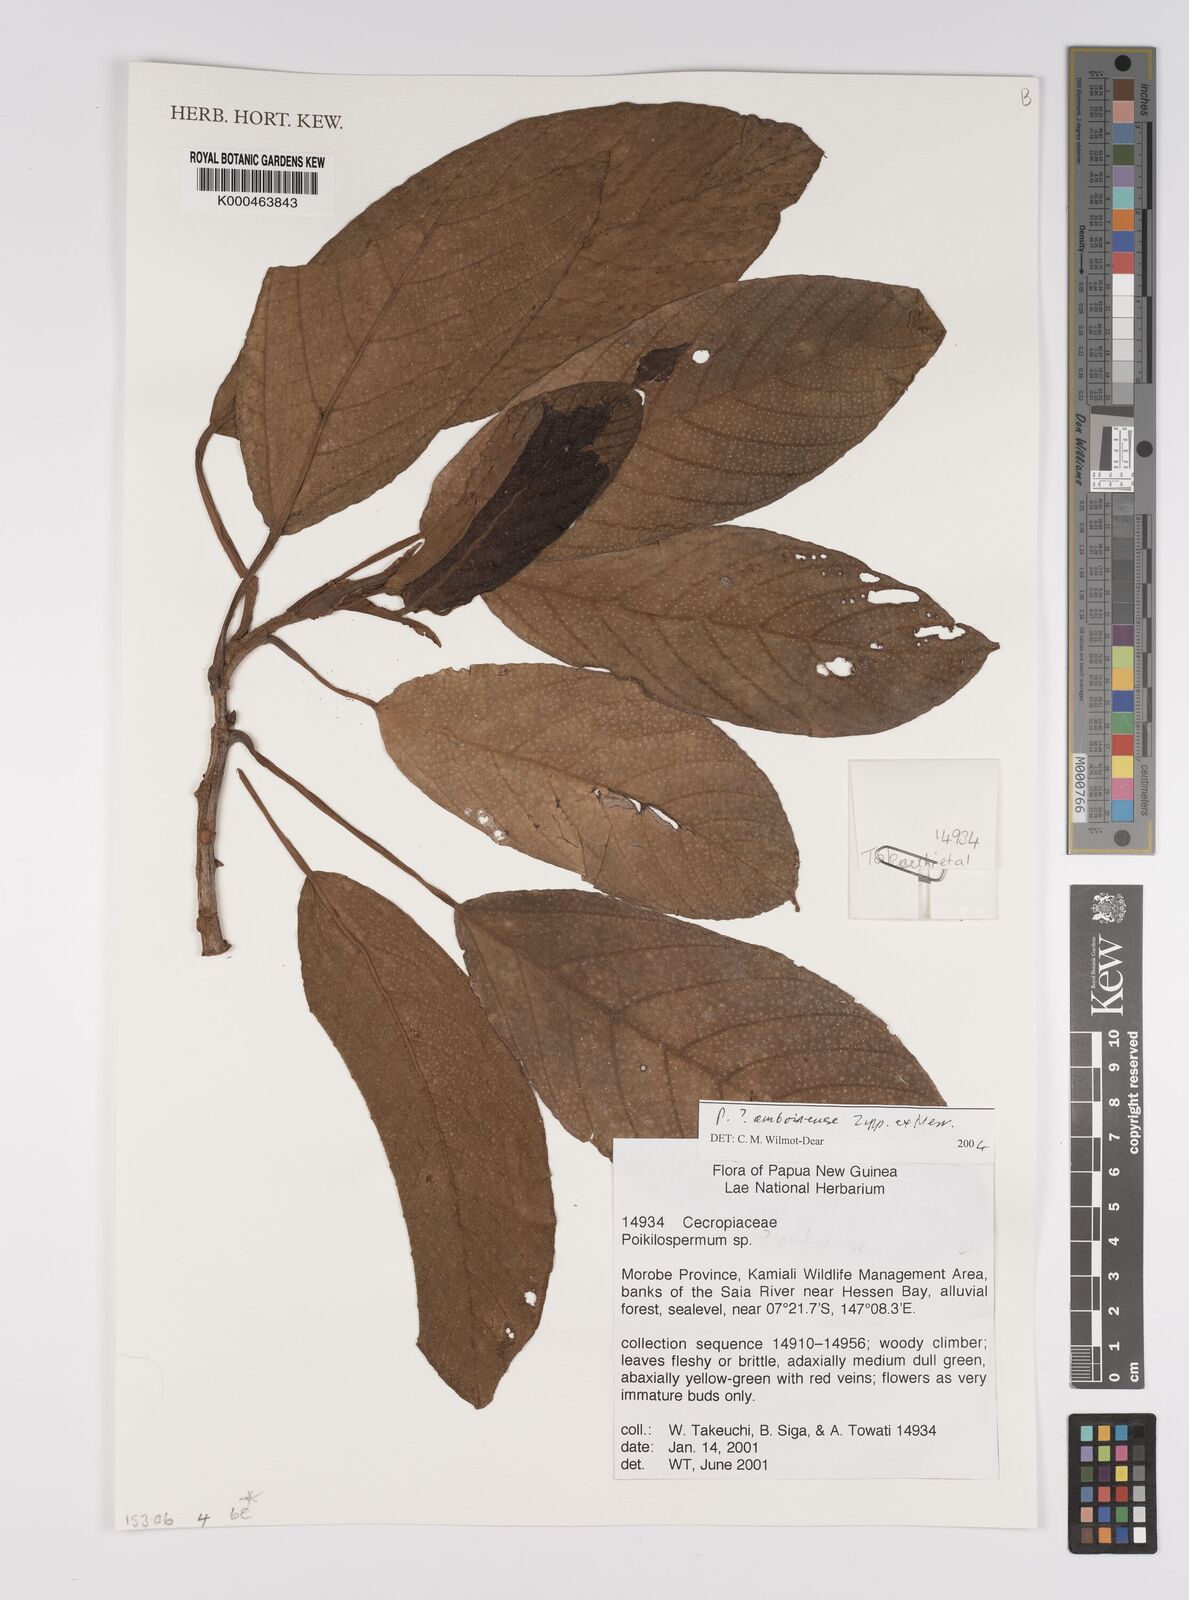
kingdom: Plantae
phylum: Tracheophyta
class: Magnoliopsida
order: Rosales
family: Urticaceae
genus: Poikilospermum
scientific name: Poikilospermum amboinense
